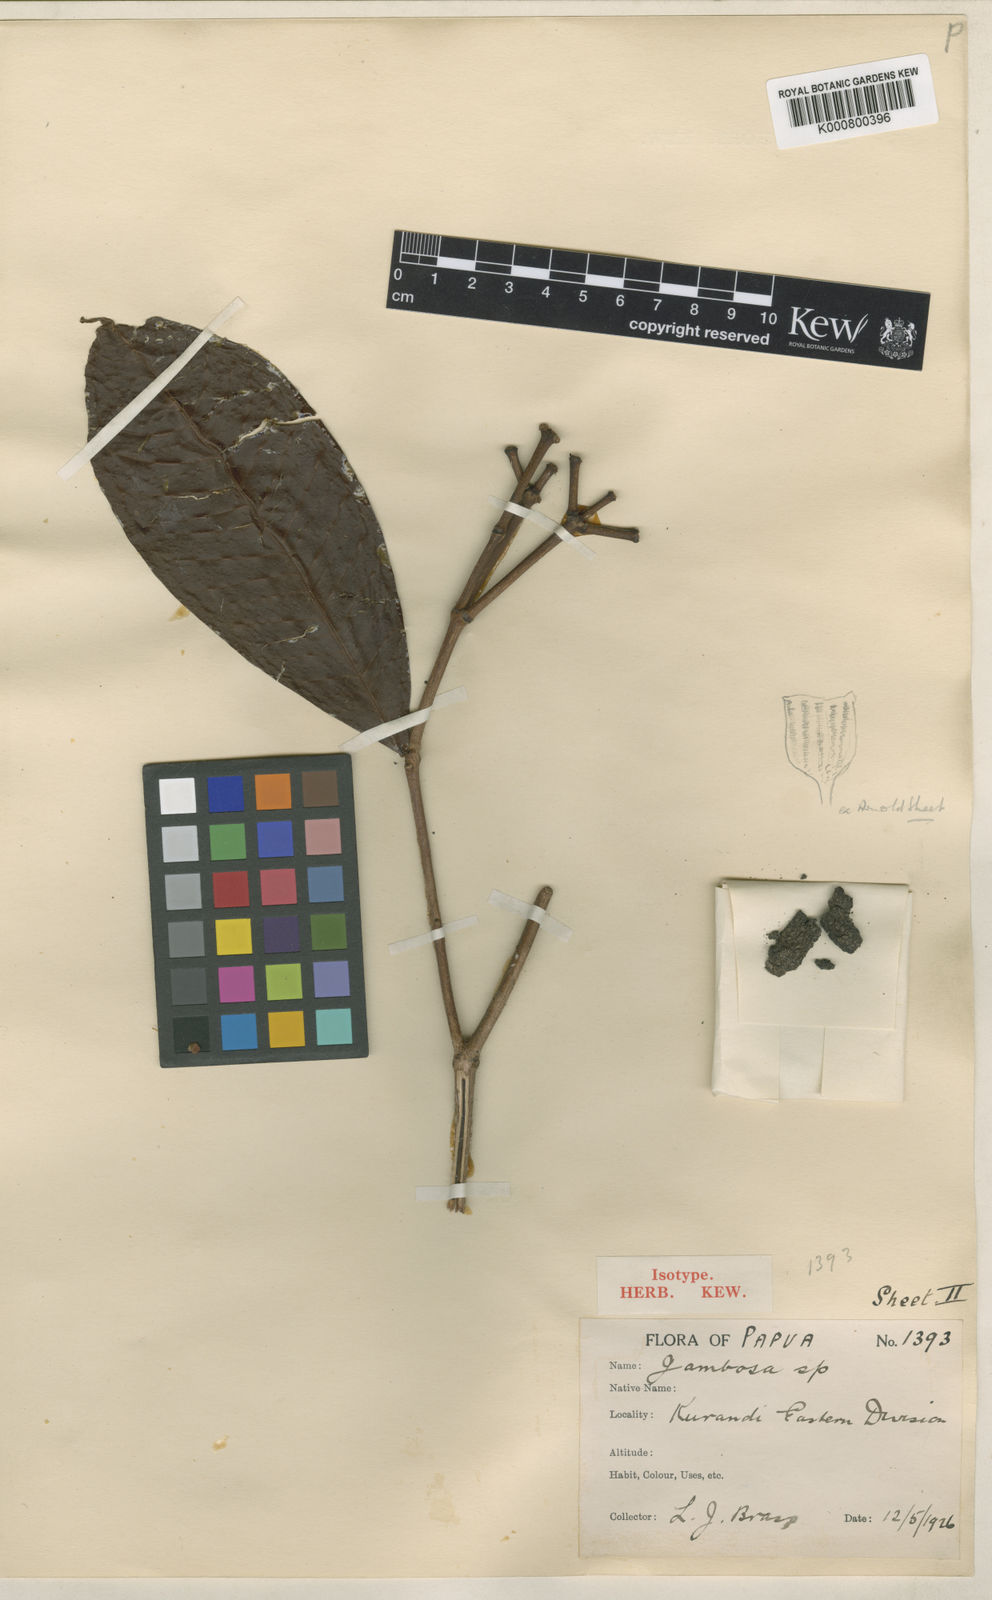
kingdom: Plantae
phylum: Tracheophyta
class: Magnoliopsida
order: Myrtales
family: Myrtaceae
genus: Syzygium
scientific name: Syzygium lagerstmemioides
